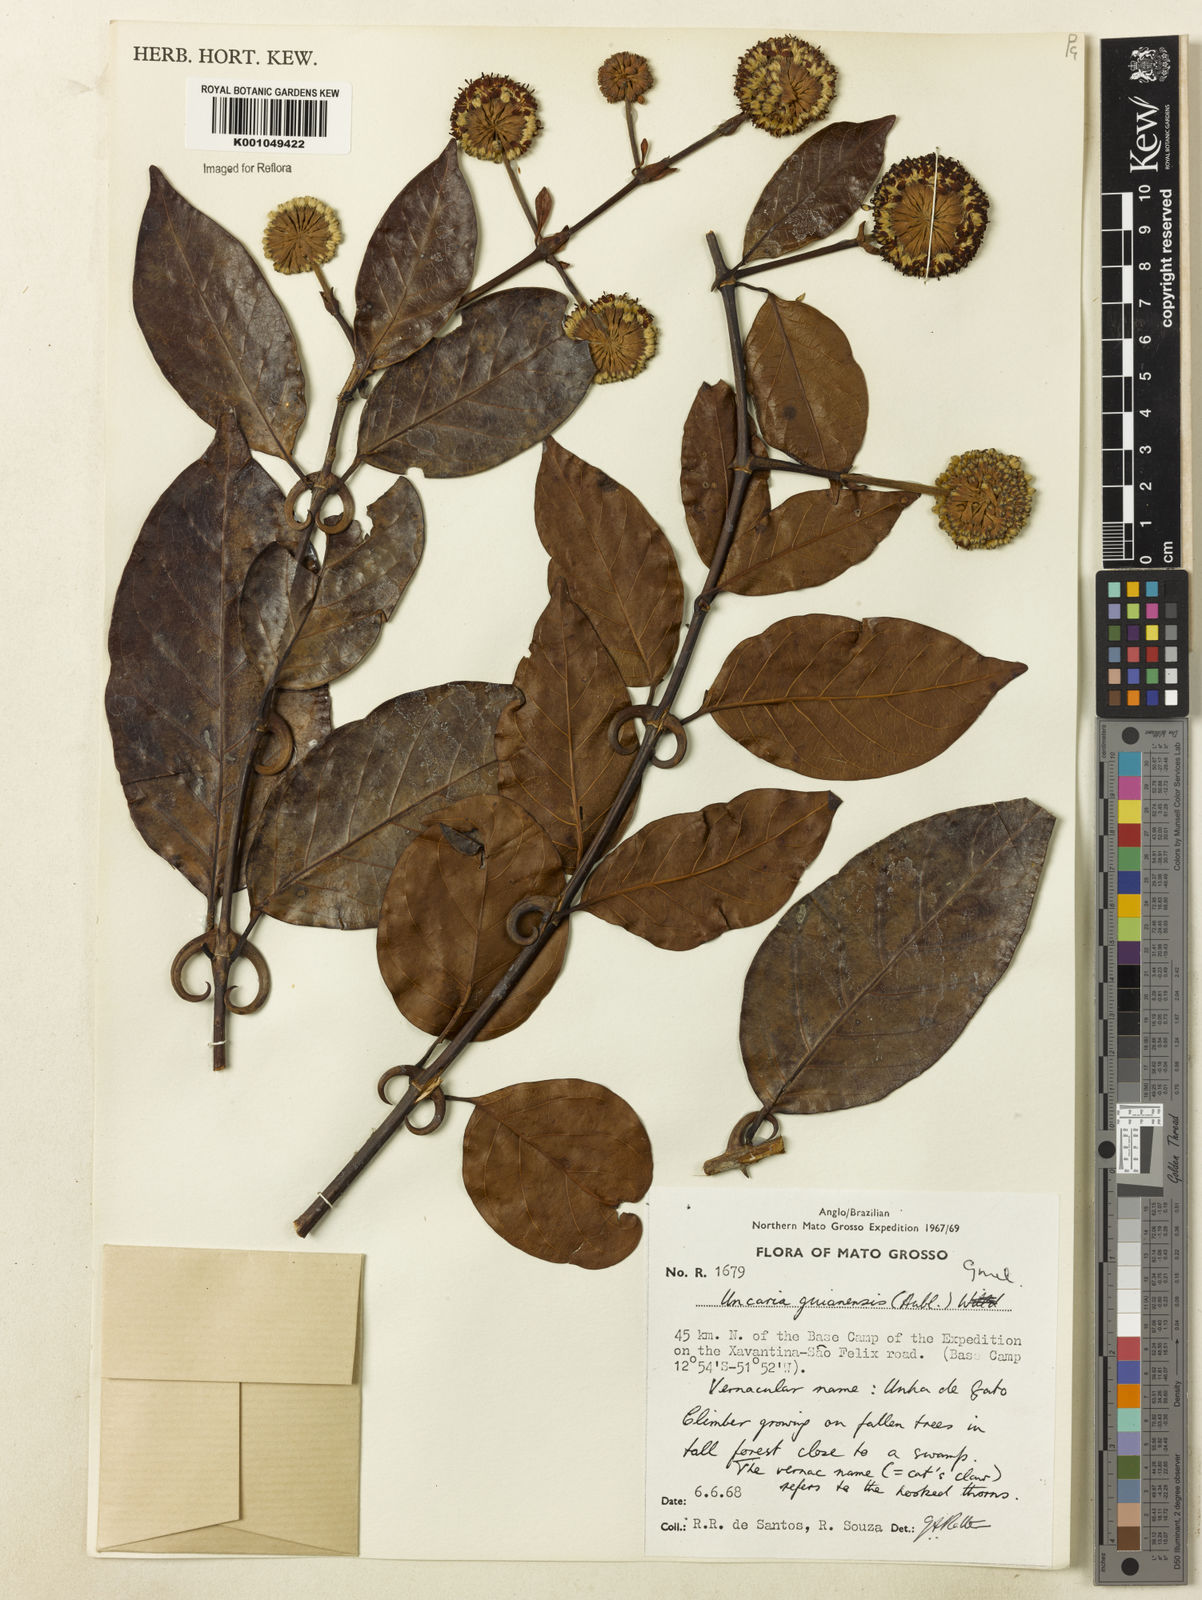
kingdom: Plantae
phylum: Tracheophyta
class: Magnoliopsida
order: Gentianales
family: Rubiaceae
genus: Uncaria
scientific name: Uncaria guianensis
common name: Cat's-claw
